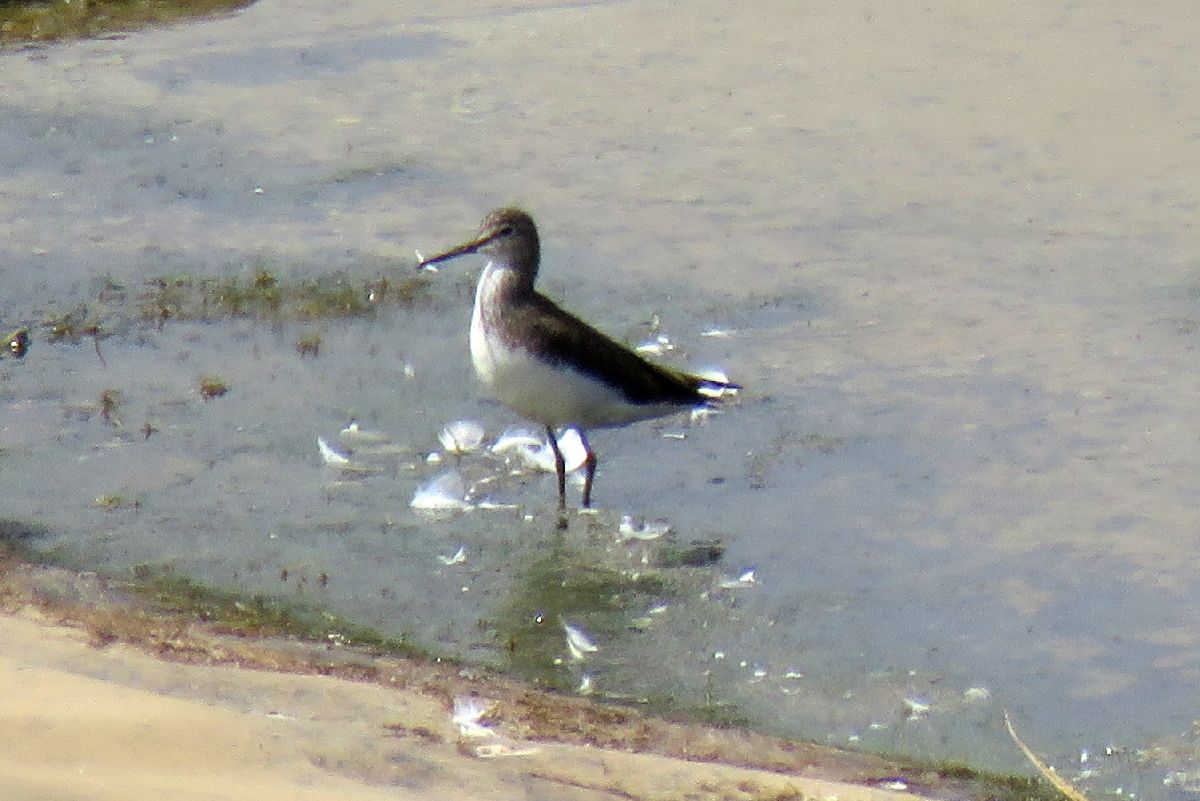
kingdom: Animalia
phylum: Chordata
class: Aves
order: Charadriiformes
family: Scolopacidae
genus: Tringa
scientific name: Tringa ochropus
